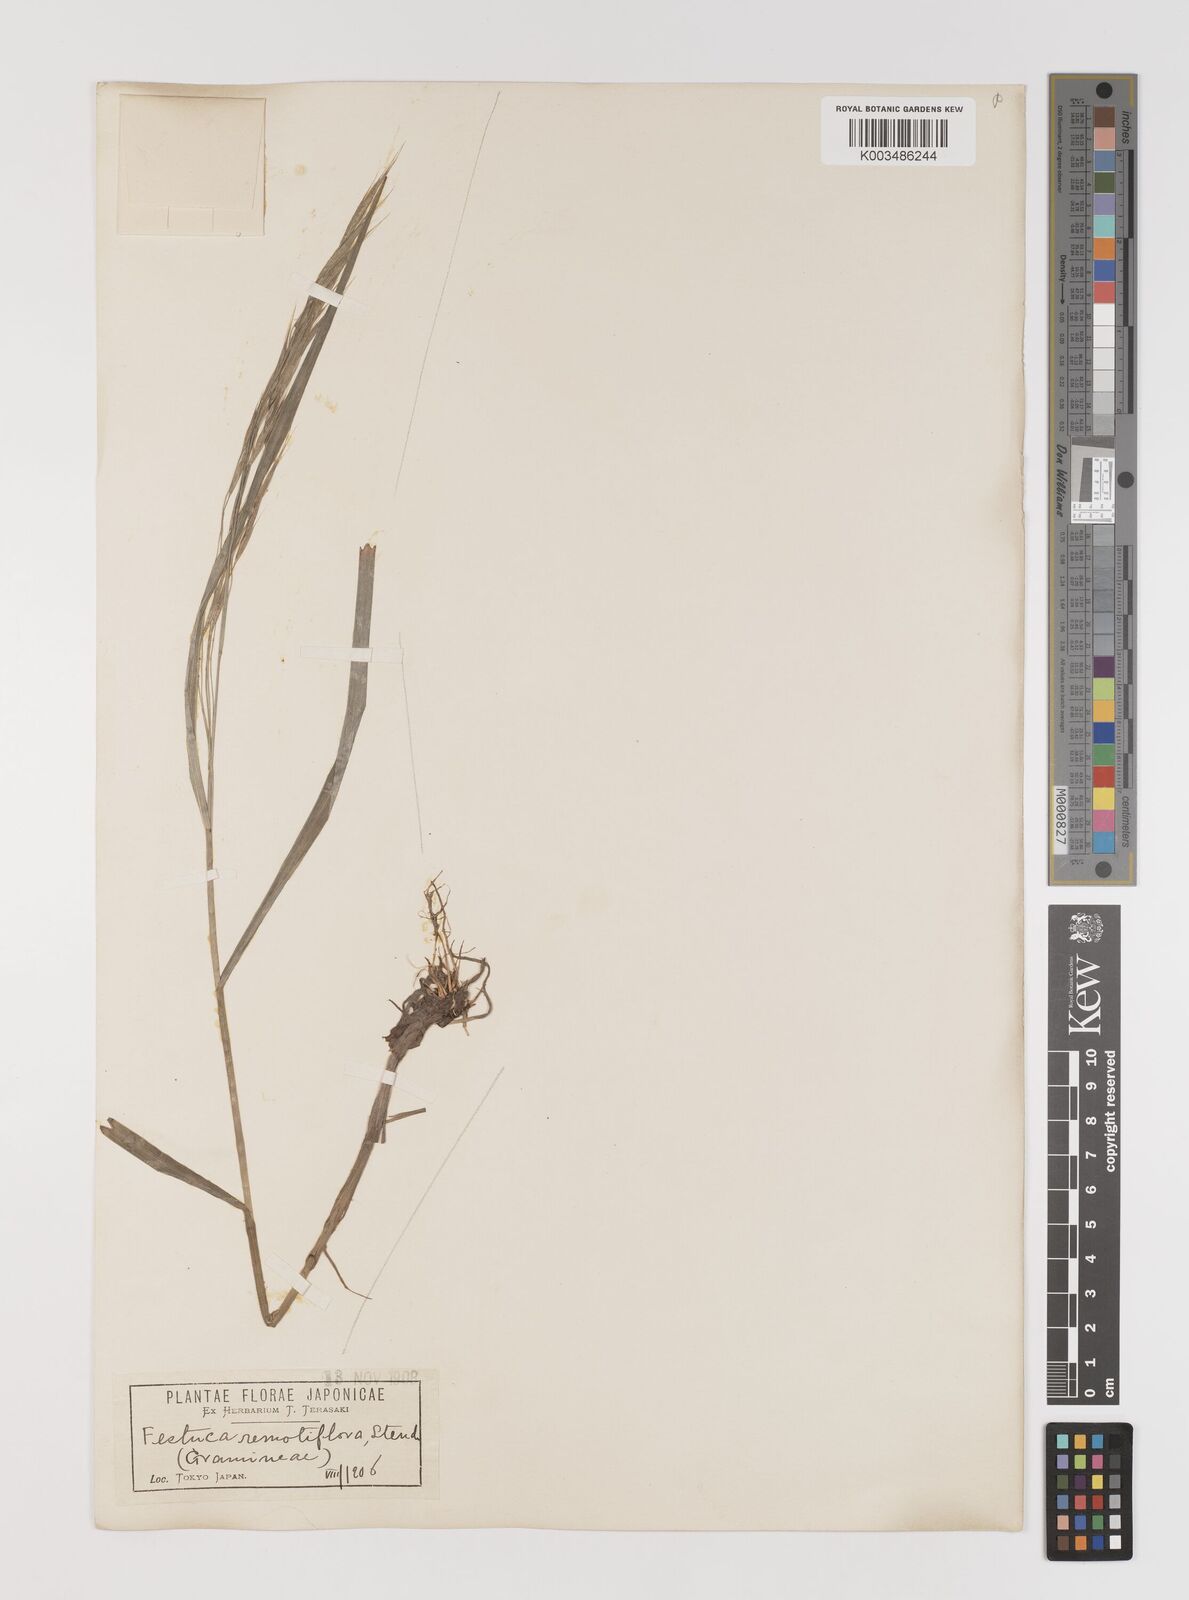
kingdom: Plantae
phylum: Tracheophyta
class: Liliopsida
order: Poales
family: Poaceae
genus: Bromus
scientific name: Bromus remotiflorus
